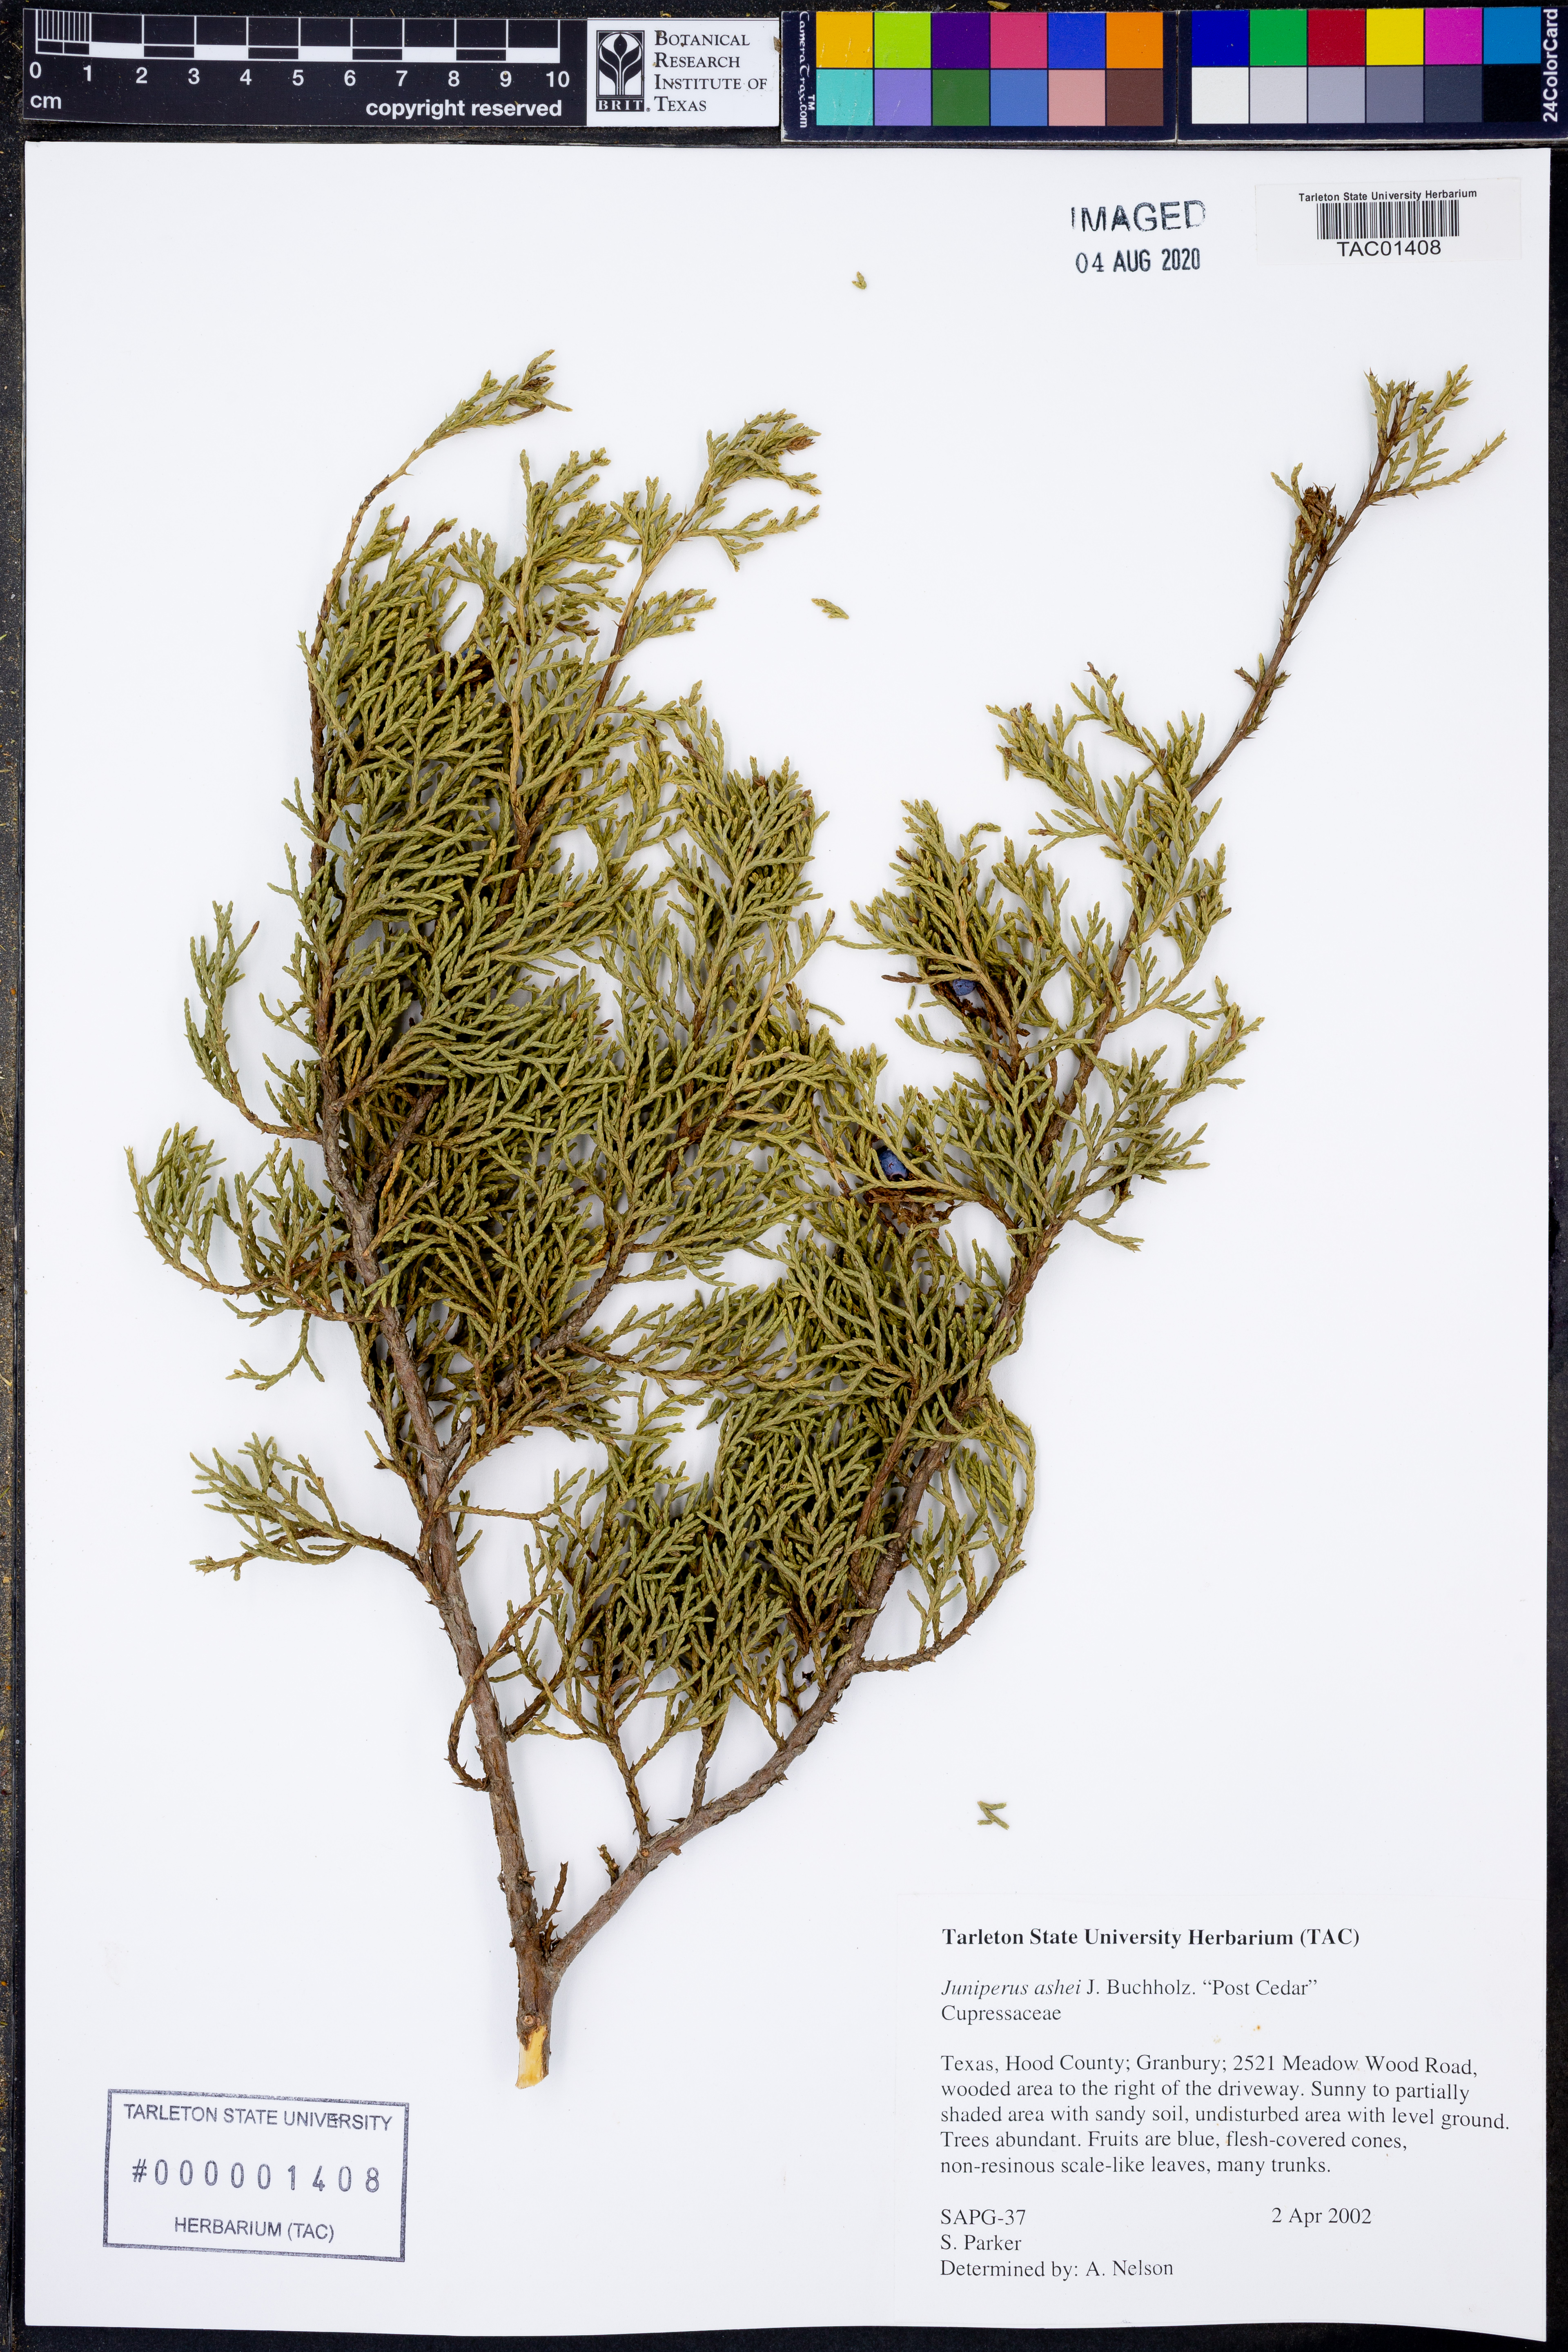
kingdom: Plantae
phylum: Tracheophyta
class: Pinopsida
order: Pinales
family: Cupressaceae
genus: Juniperus
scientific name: Juniperus ashei
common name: Mexican juniper
